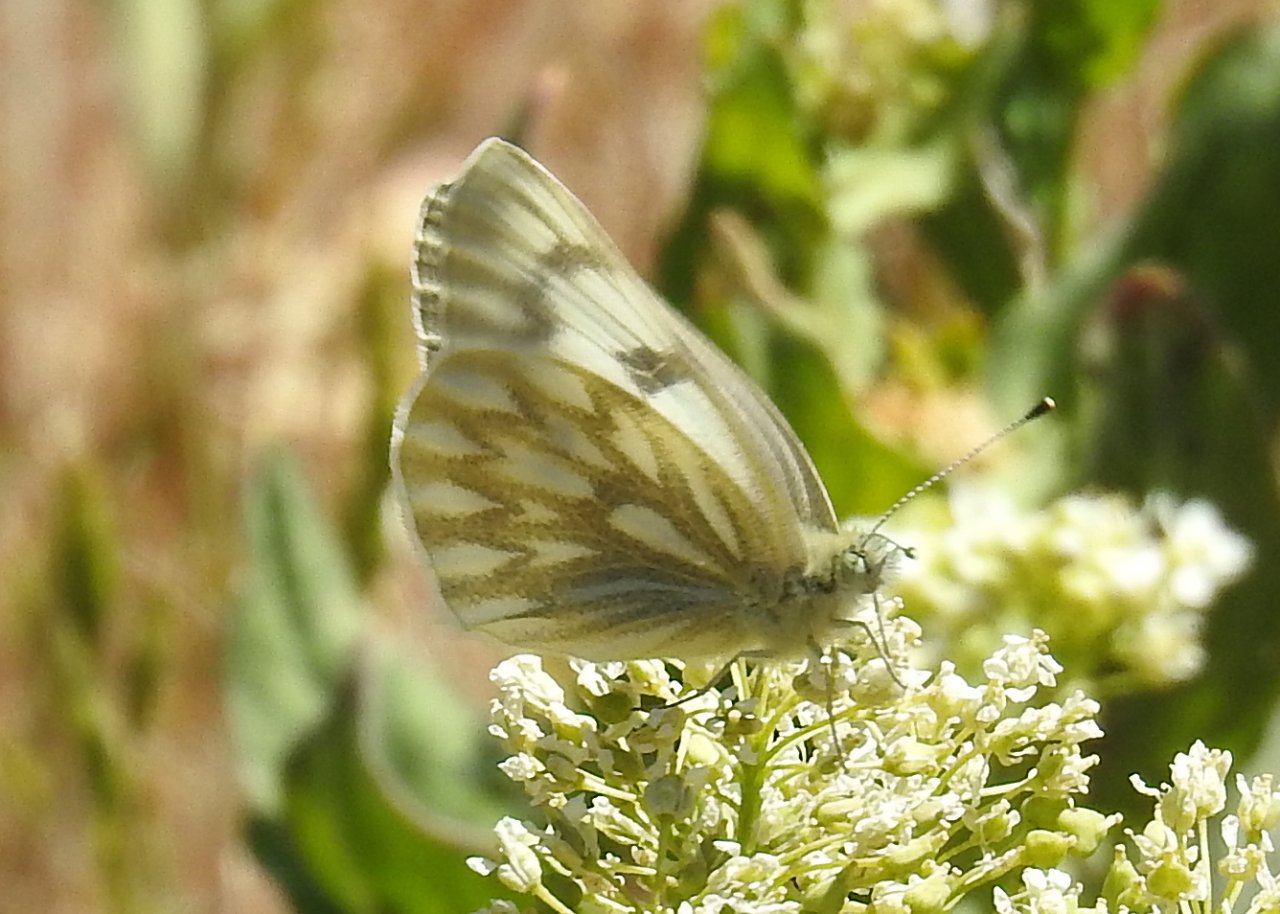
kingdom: Animalia
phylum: Arthropoda
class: Insecta
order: Lepidoptera
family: Pieridae
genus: Pontia
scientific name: Pontia occidentalis
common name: Western White
